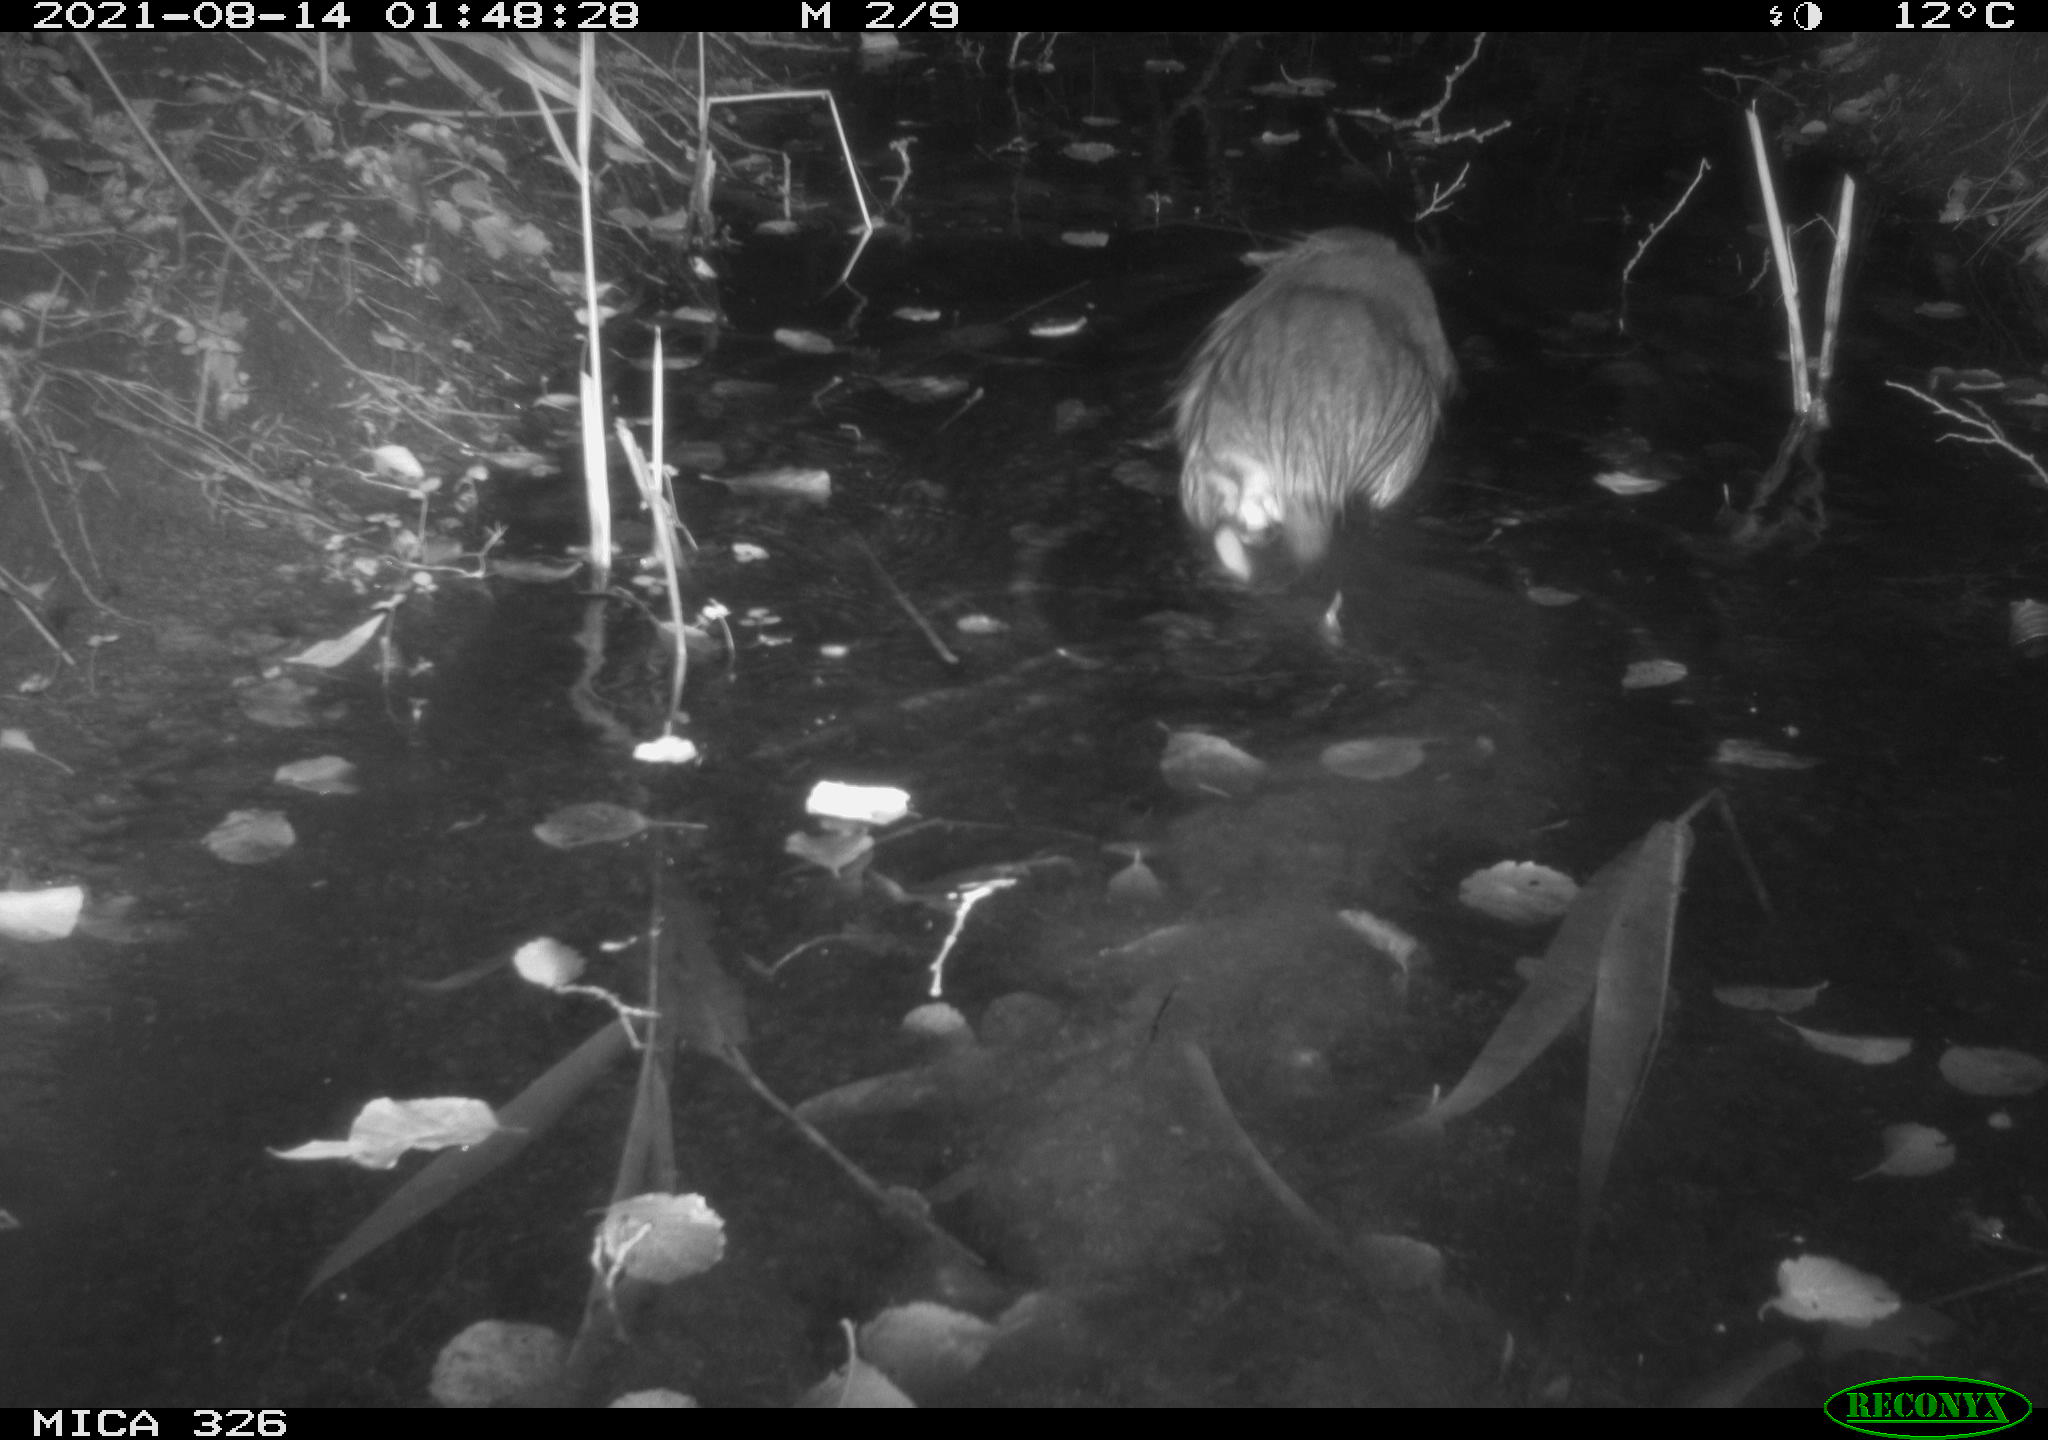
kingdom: Animalia
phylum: Chordata
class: Mammalia
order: Rodentia
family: Myocastoridae
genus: Myocastor
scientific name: Myocastor coypus
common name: Coypu
